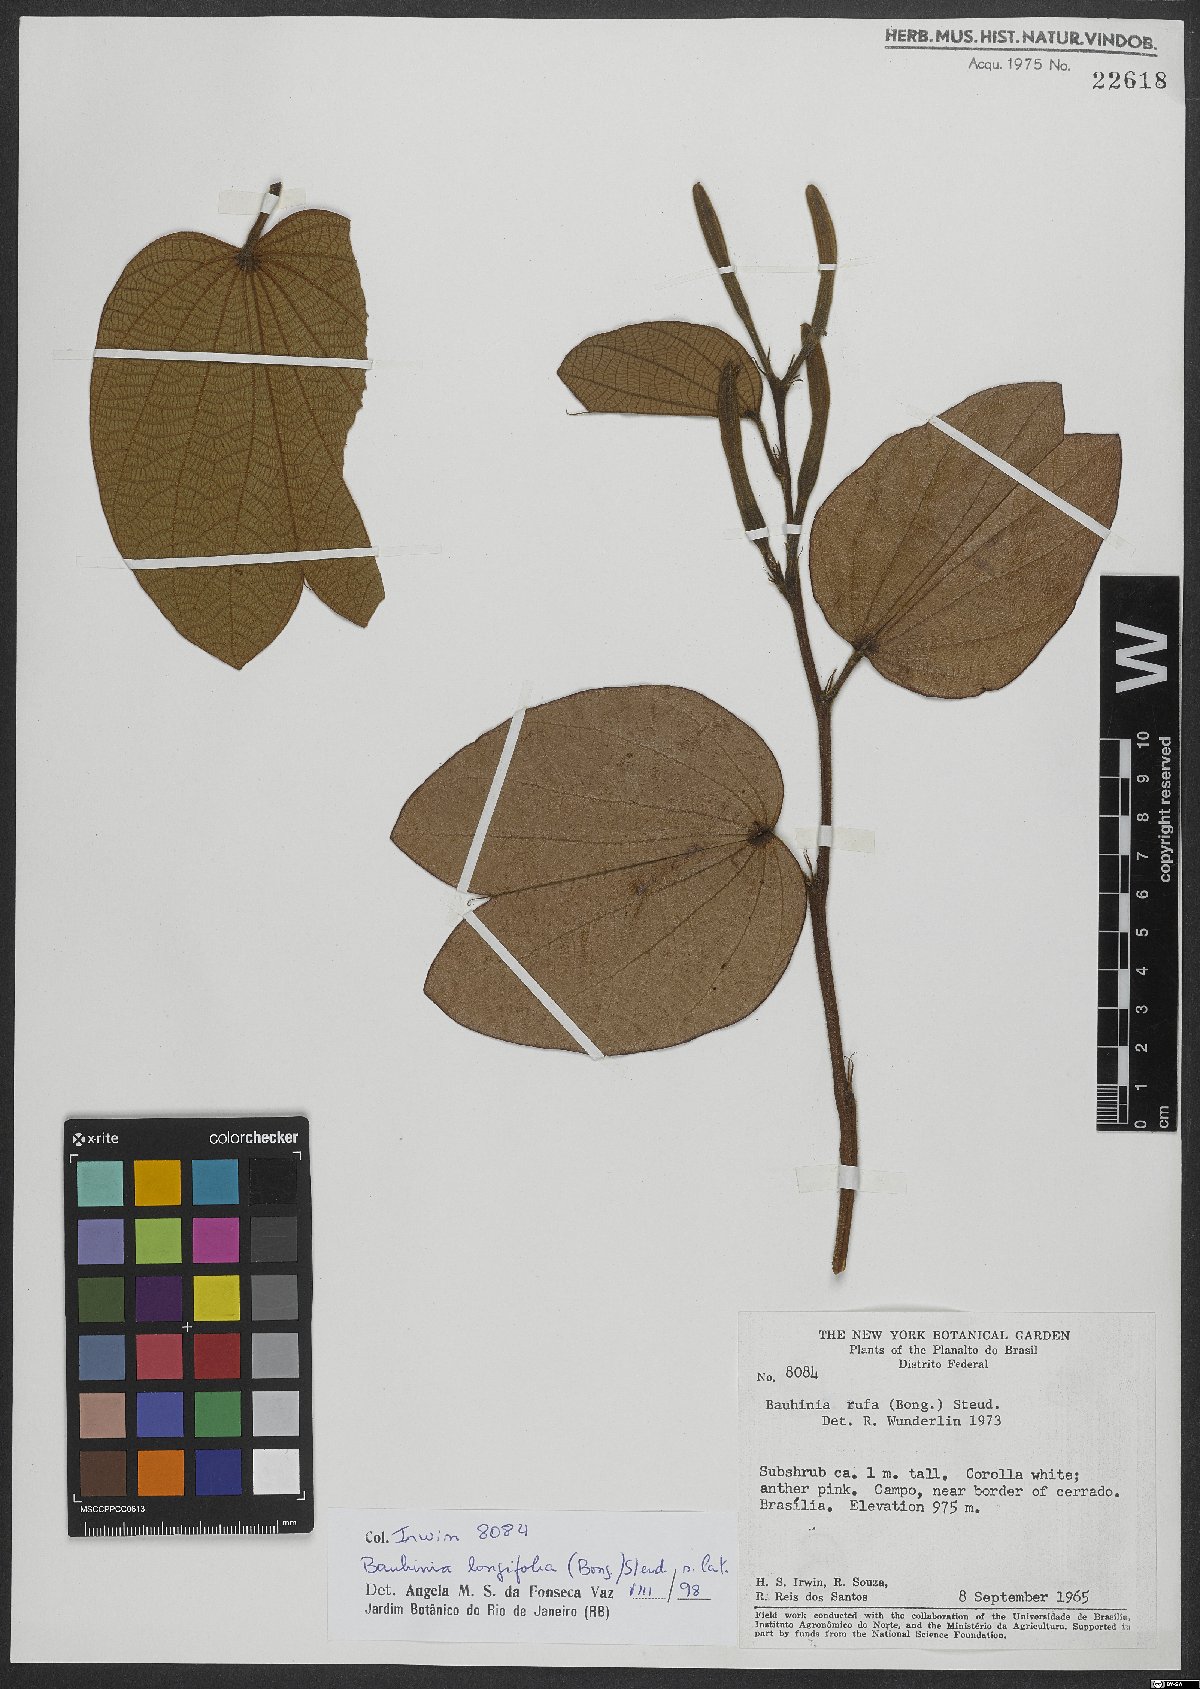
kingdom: Plantae
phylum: Tracheophyta
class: Magnoliopsida
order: Fabales
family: Fabaceae
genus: Bauhinia
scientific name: Bauhinia longifolia
